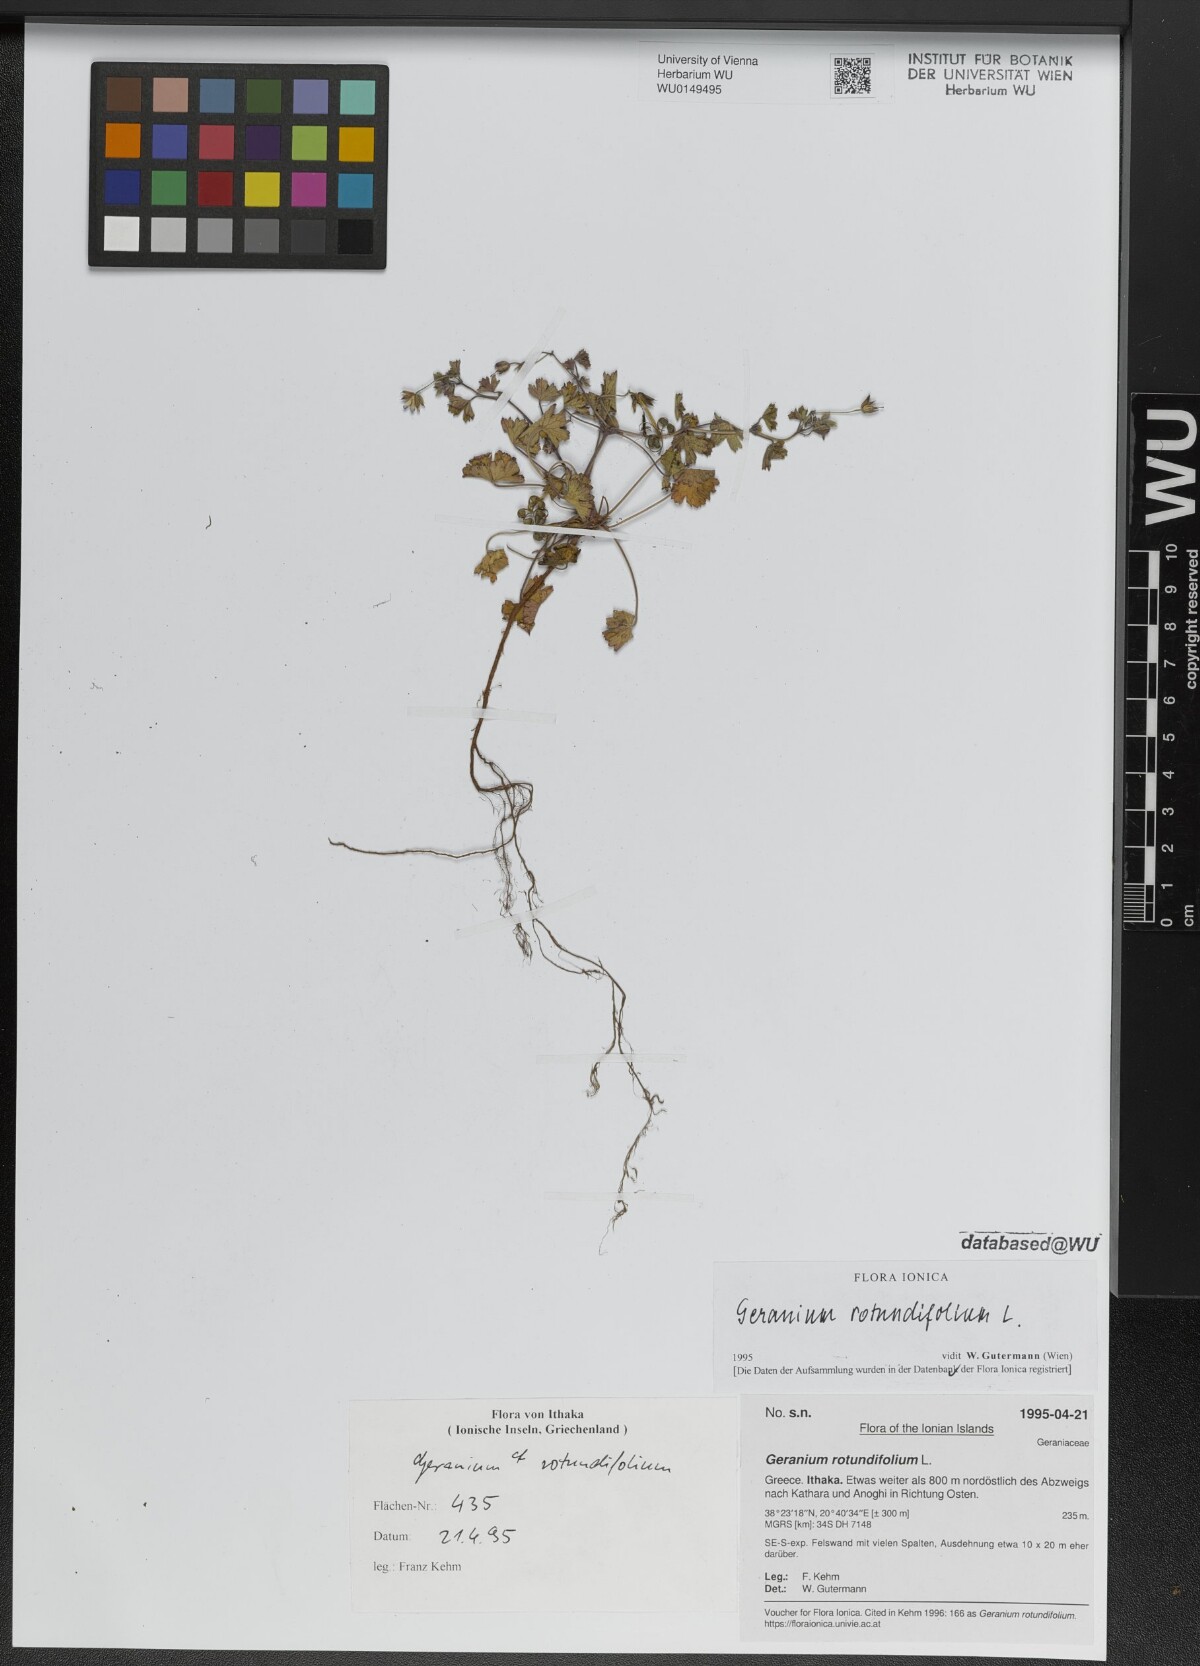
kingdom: Plantae
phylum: Tracheophyta
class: Magnoliopsida
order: Geraniales
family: Geraniaceae
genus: Geranium
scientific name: Geranium rotundifolium
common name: Round-leaved crane's-bill
